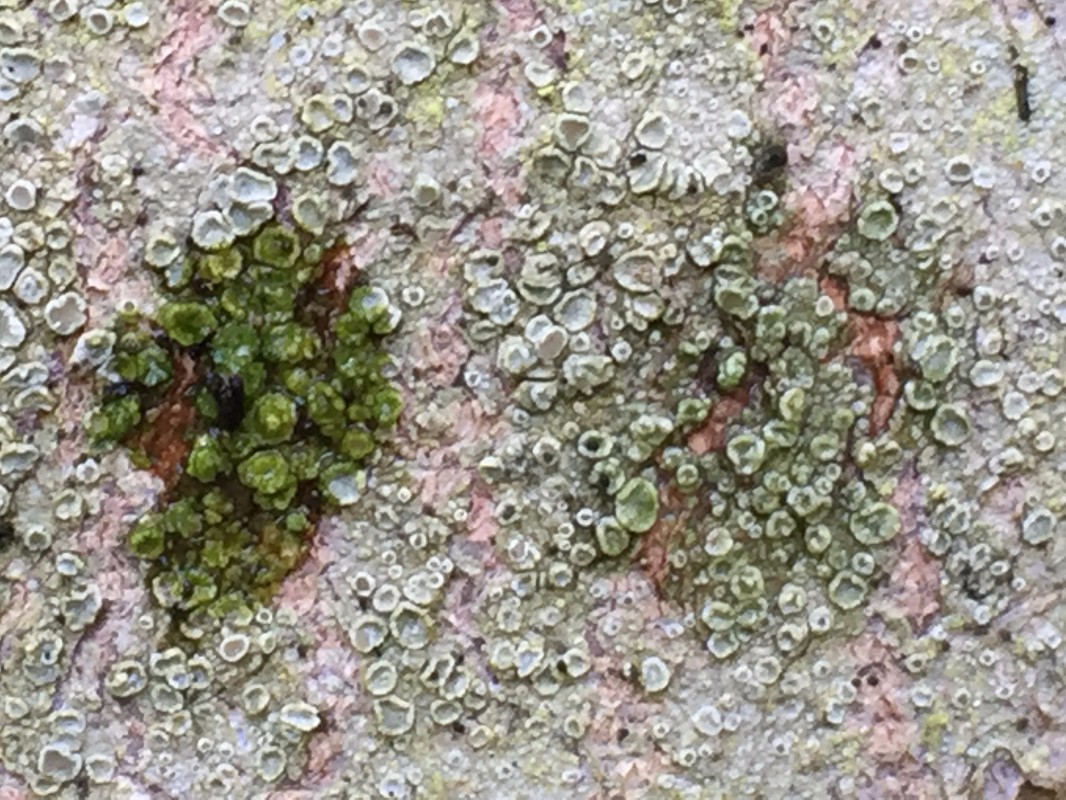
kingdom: Fungi
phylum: Ascomycota
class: Lecanoromycetes
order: Lecanorales
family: Lecanoraceae
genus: Lecanora
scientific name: Lecanora
